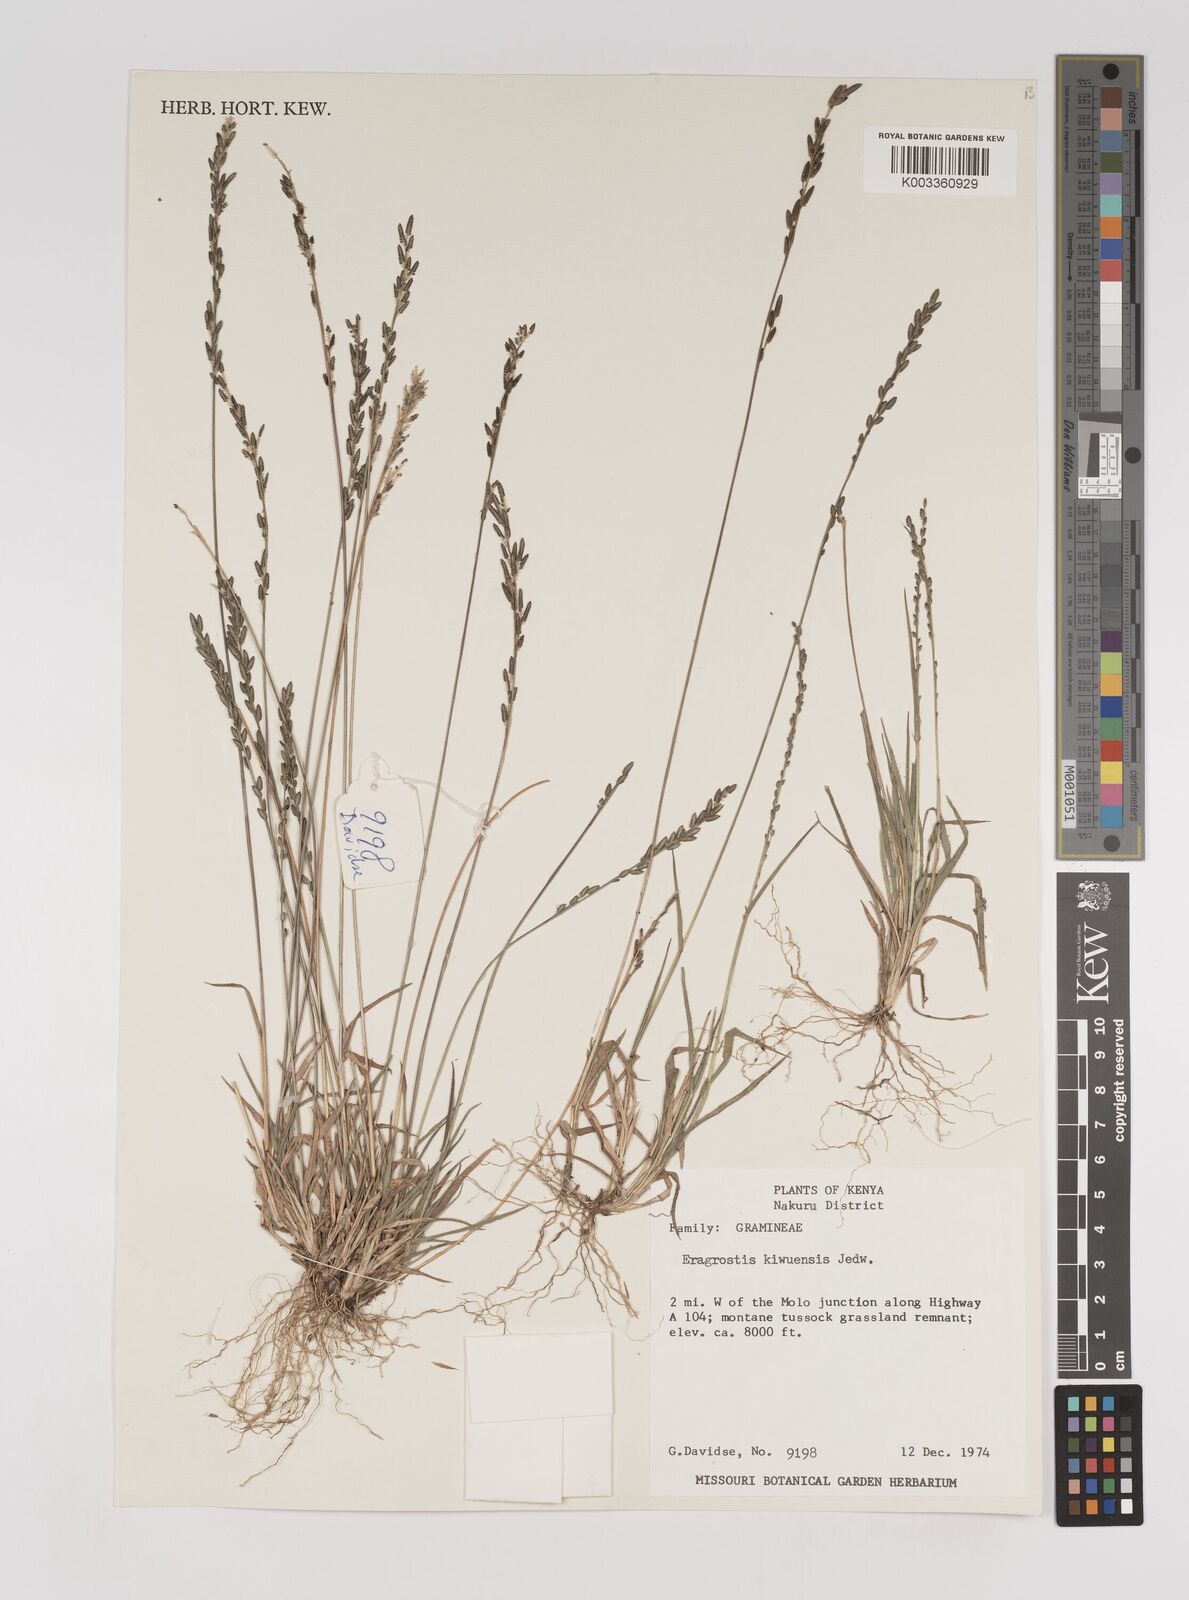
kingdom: Plantae
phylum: Tracheophyta
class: Liliopsida
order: Poales
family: Poaceae
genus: Eragrostis
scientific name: Eragrostis schweinfurthii
